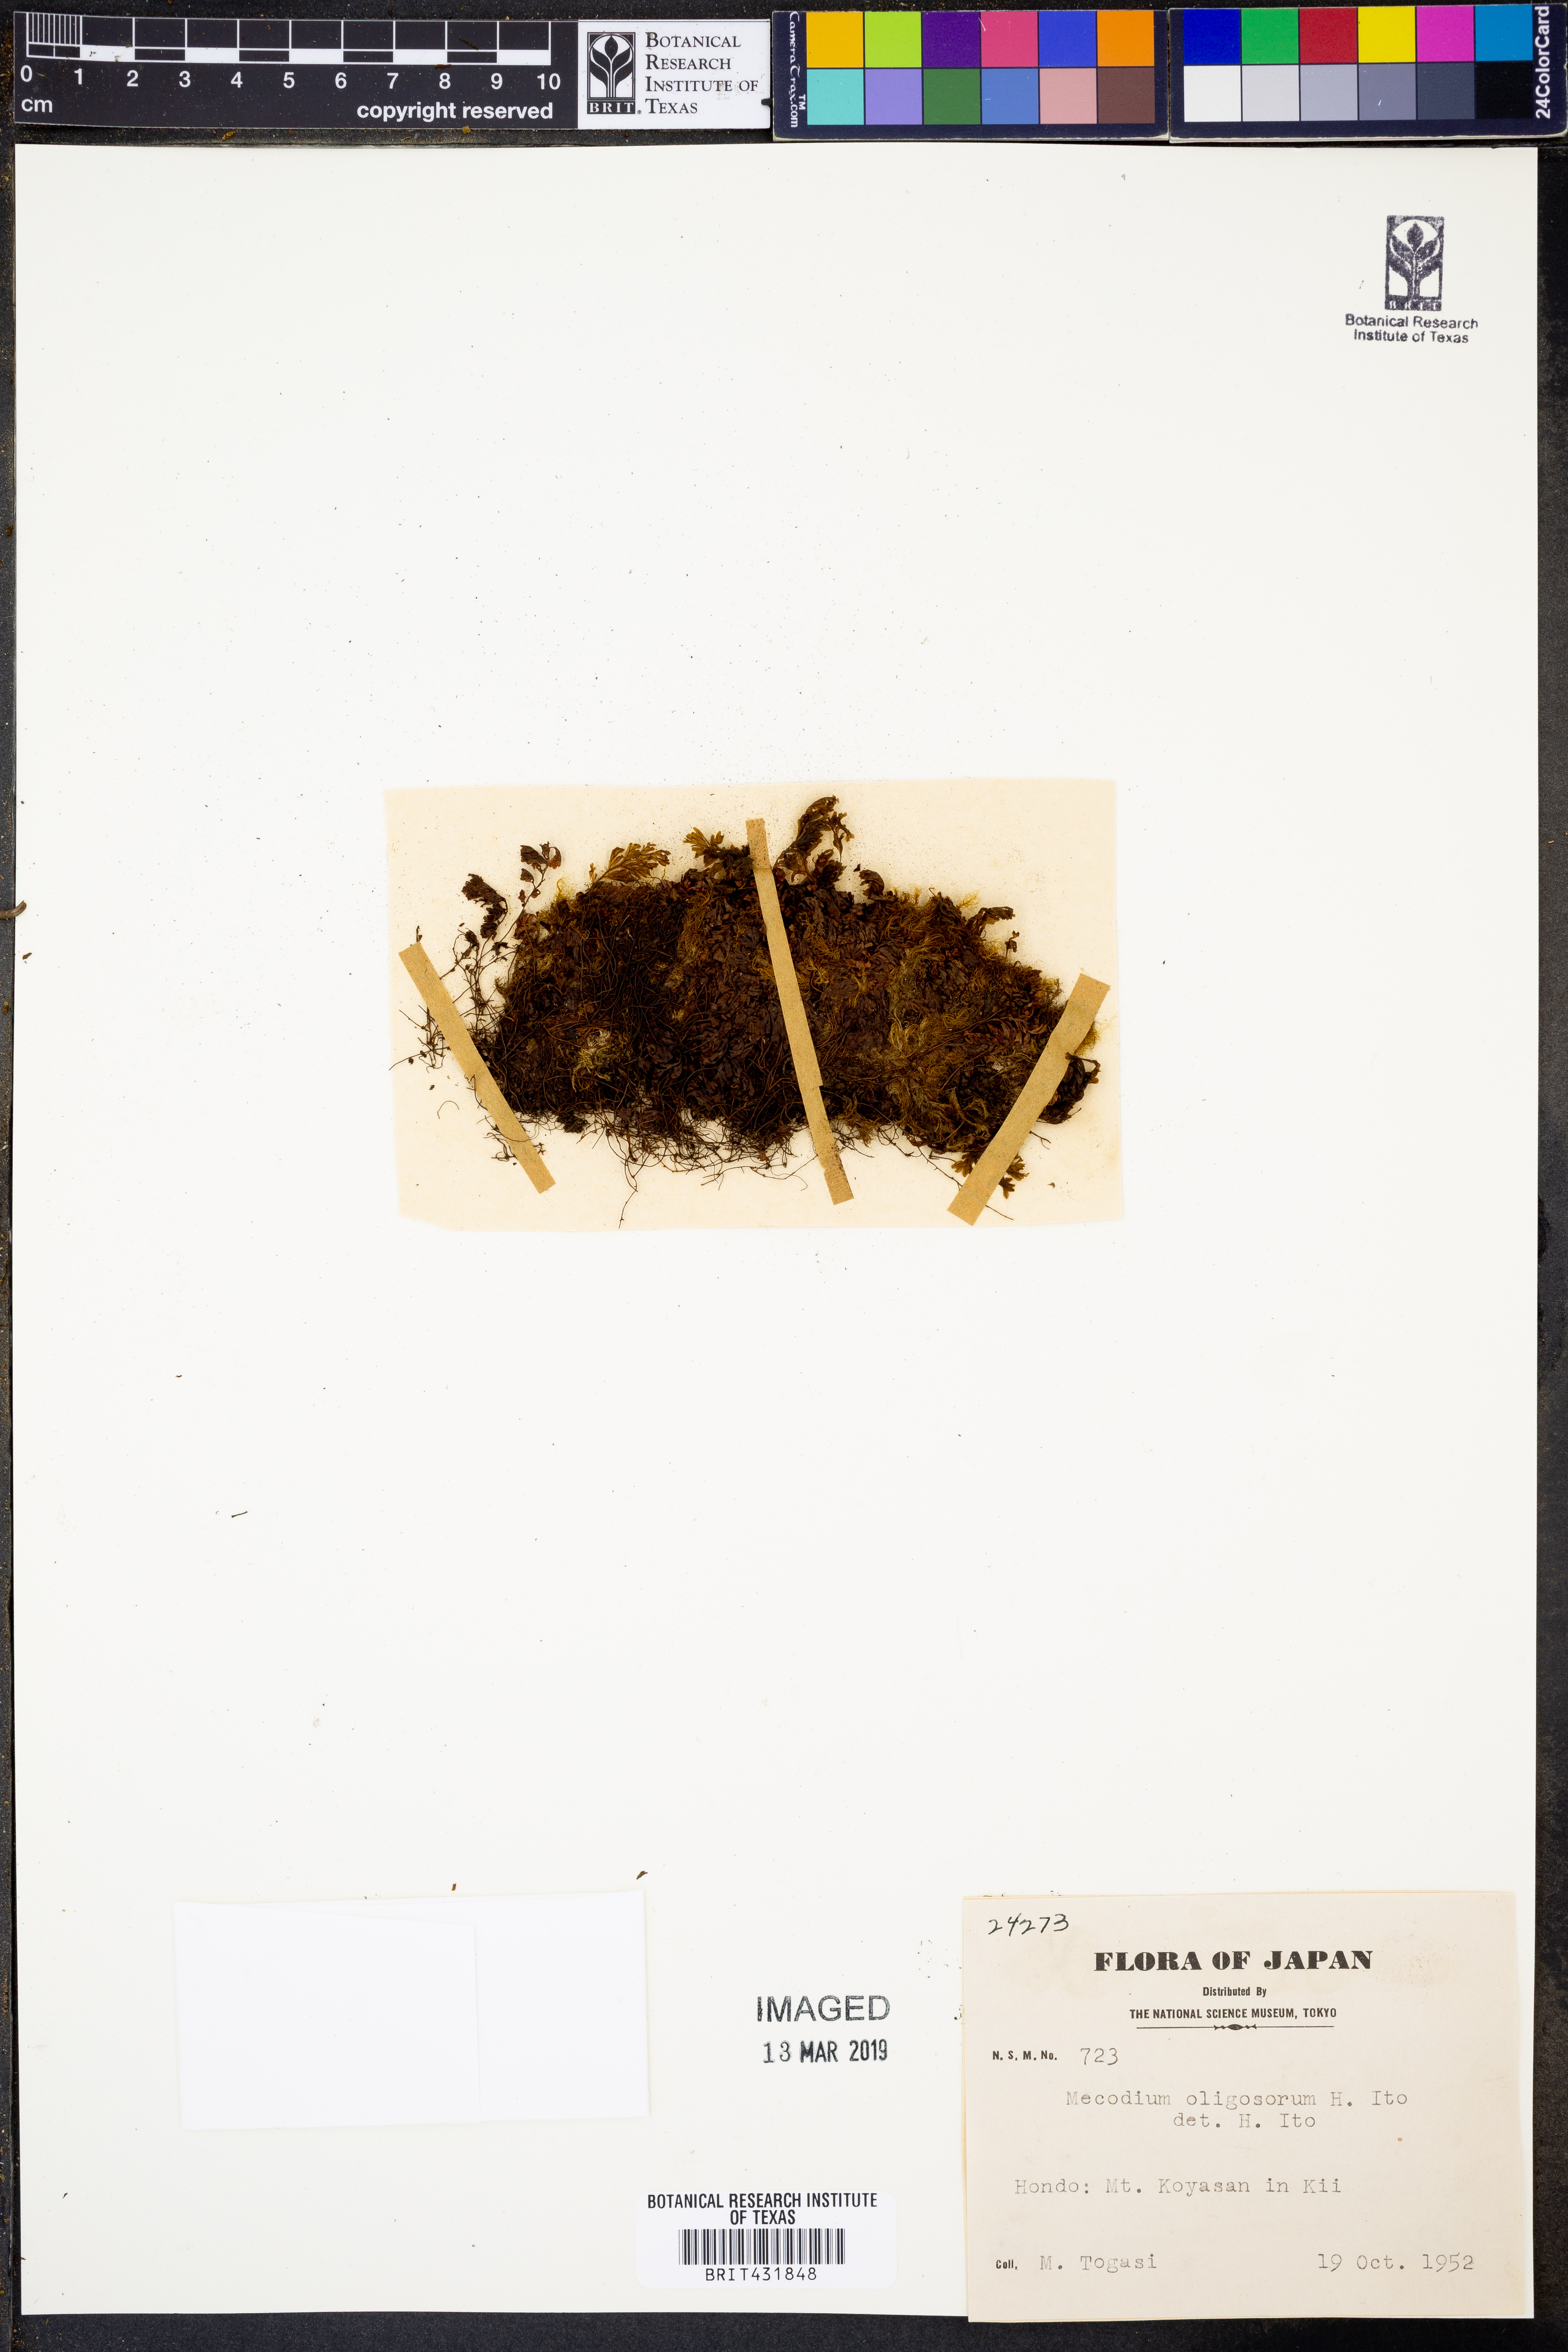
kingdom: Plantae
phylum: Tracheophyta
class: Polypodiopsida
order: Hymenophyllales
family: Hymenophyllaceae
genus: Hymenophyllum
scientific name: Hymenophyllum oligosorum
